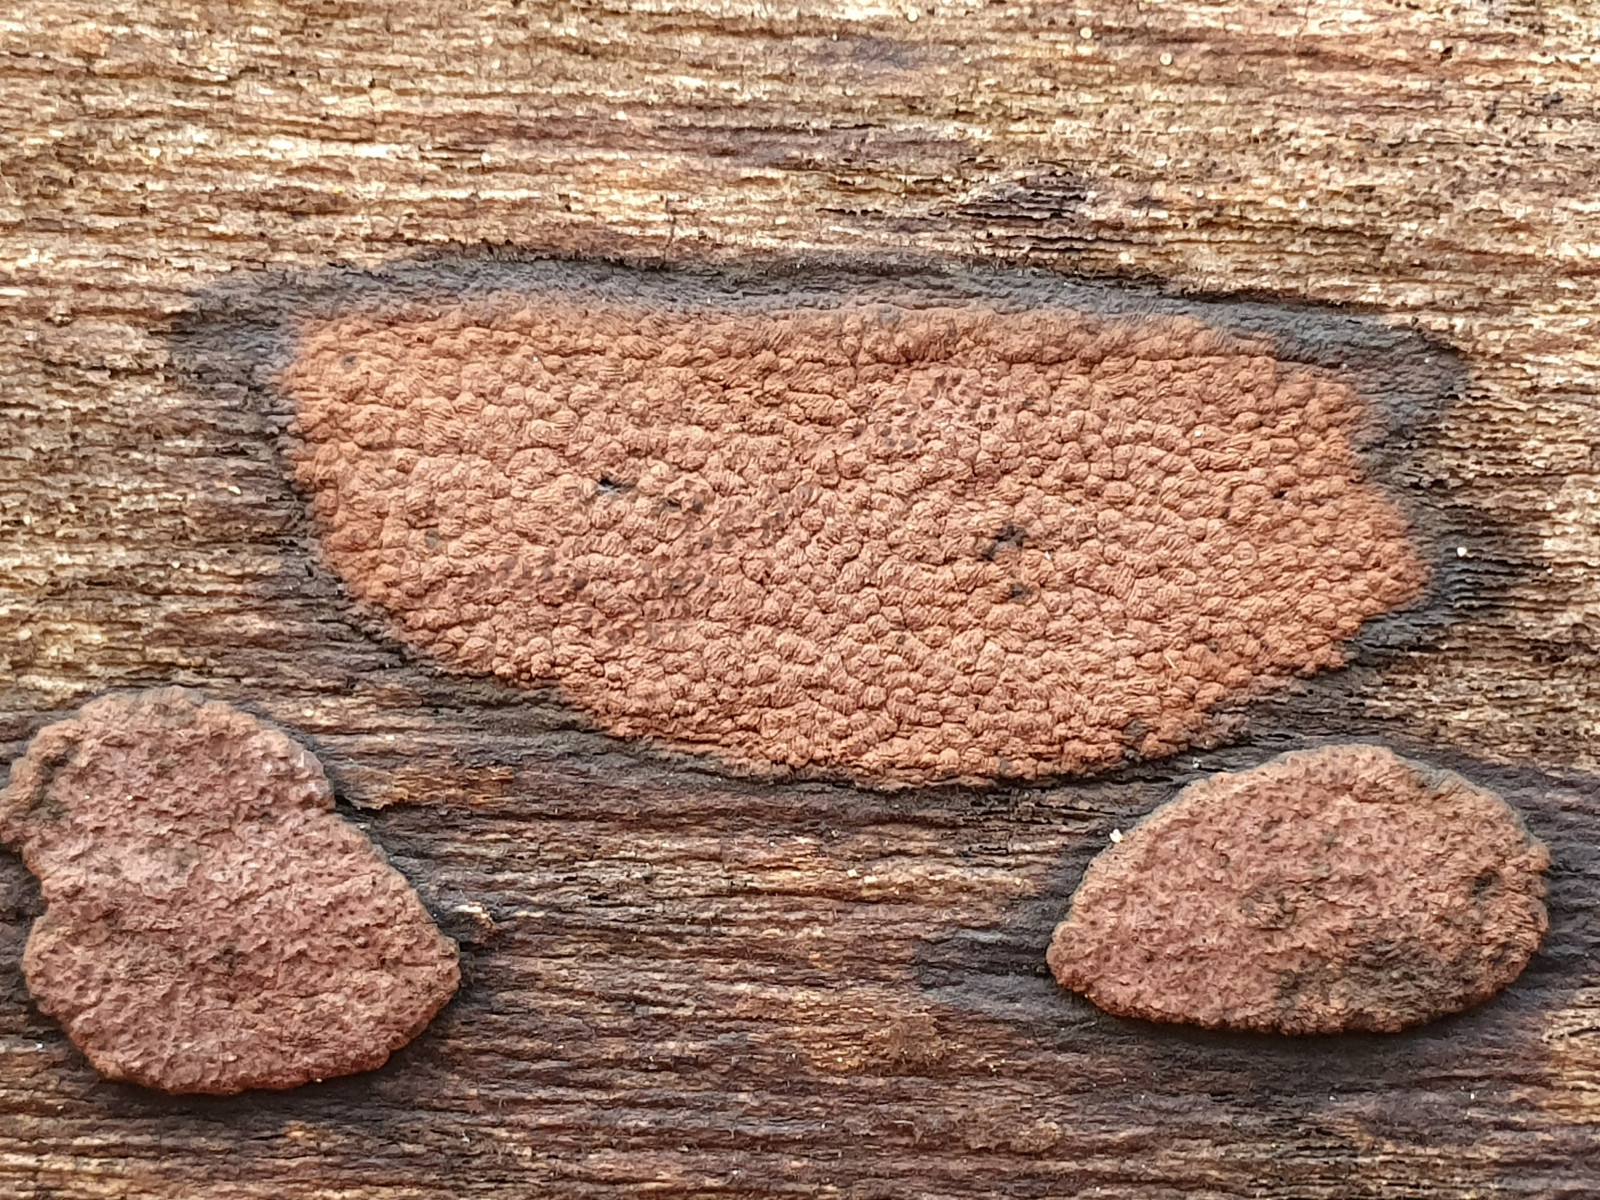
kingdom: Fungi
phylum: Ascomycota
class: Sordariomycetes
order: Xylariales
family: Hypoxylaceae
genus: Hypoxylon
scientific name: Hypoxylon petriniae
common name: nedsænket kulbær
